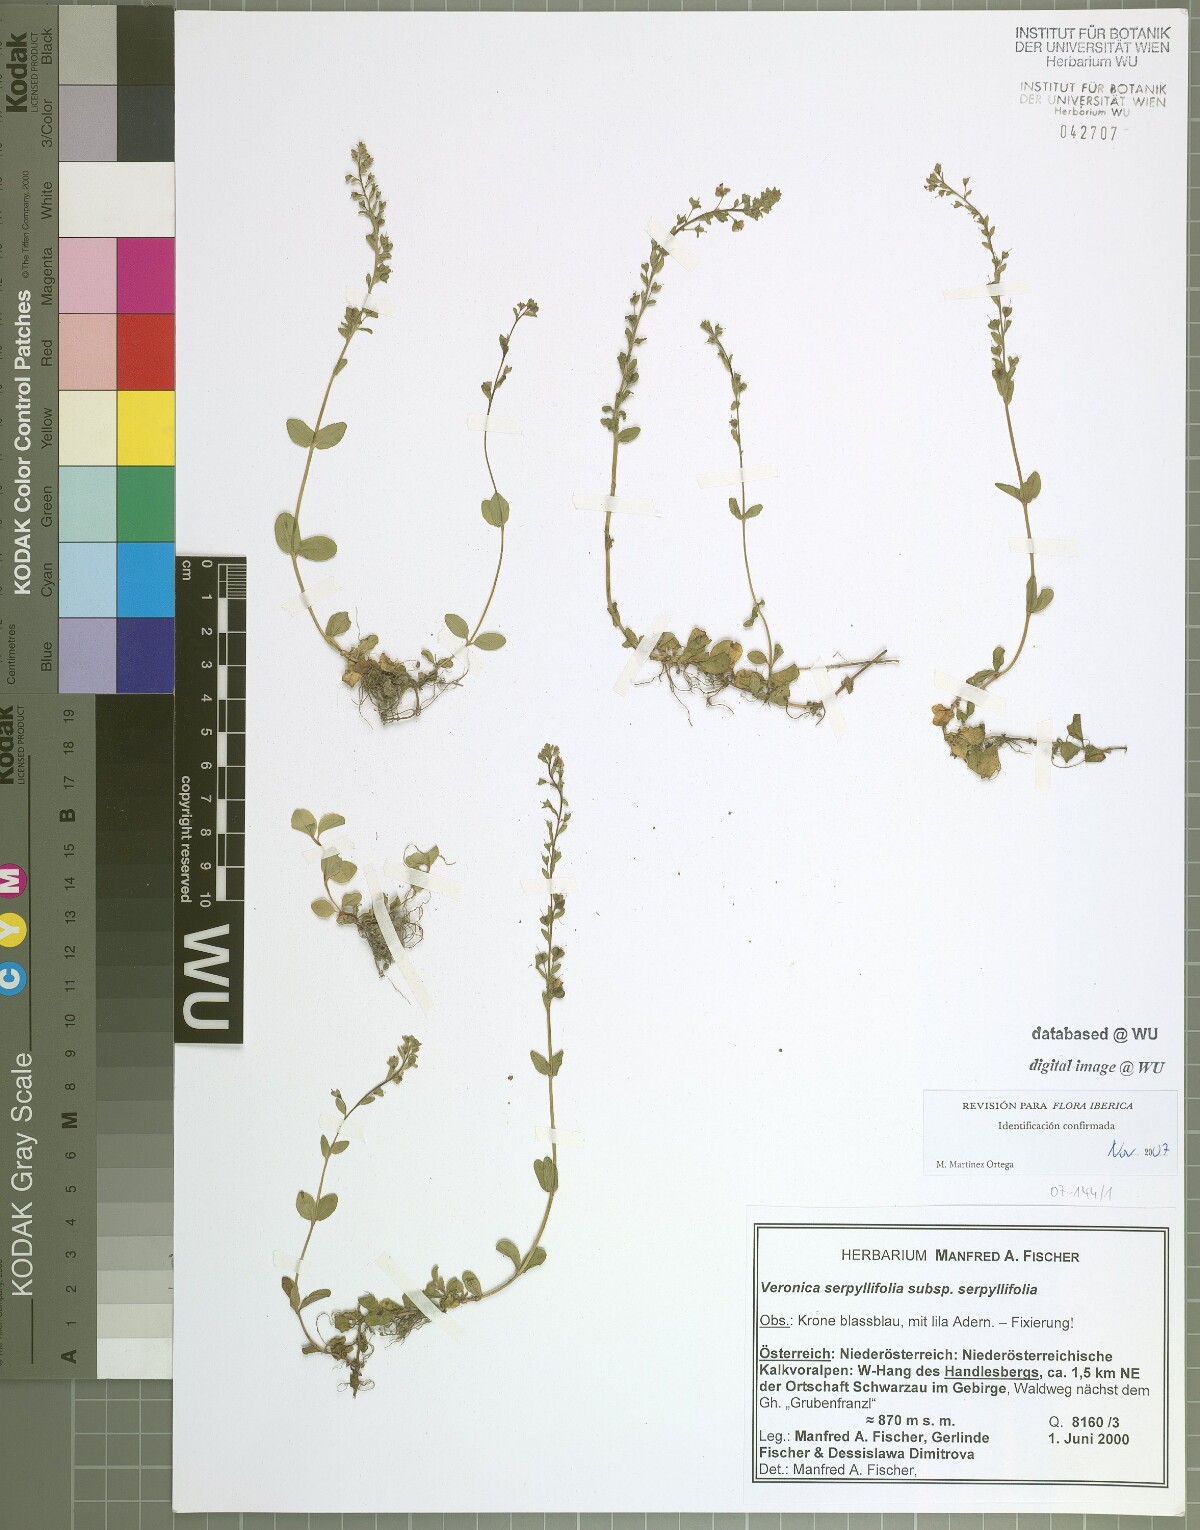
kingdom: Plantae
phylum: Tracheophyta
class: Magnoliopsida
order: Lamiales
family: Plantaginaceae
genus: Veronica
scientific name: Veronica serpyllifolia
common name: Thyme-leaved speedwell
